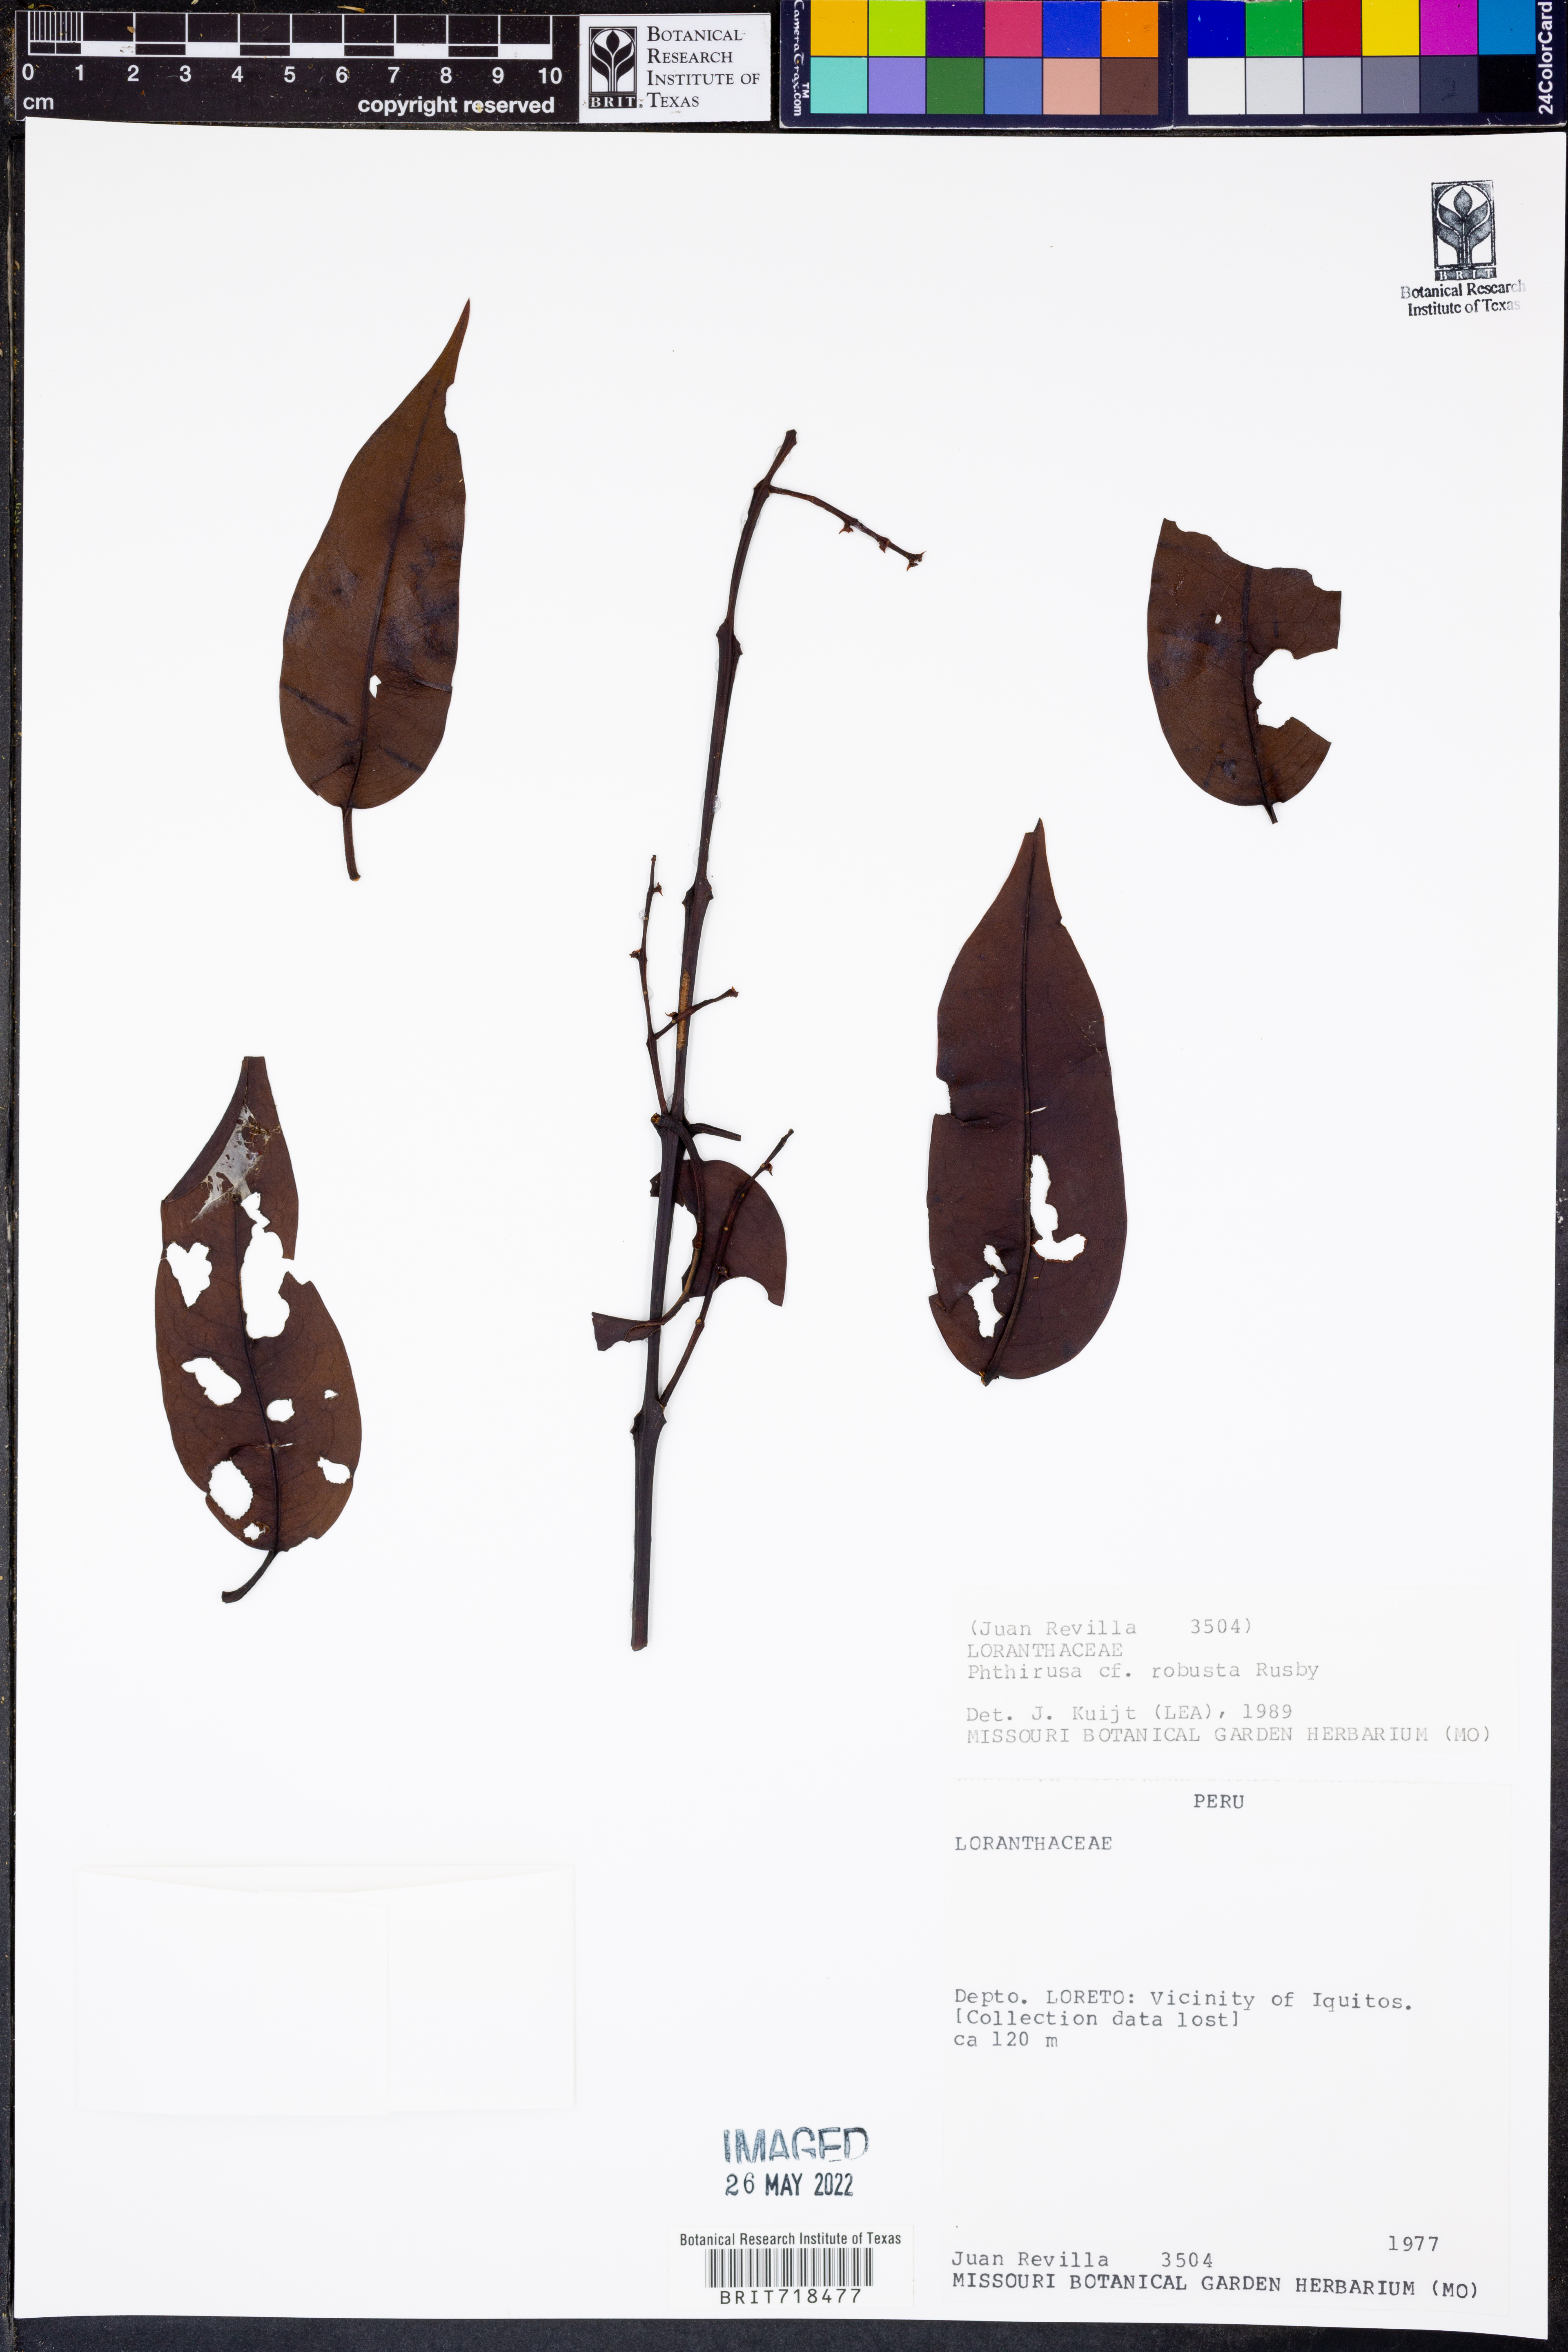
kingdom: Plantae
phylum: Tracheophyta
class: Magnoliopsida
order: Santalales
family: Loranthaceae
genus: Phthirusa
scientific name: Phthirusa
